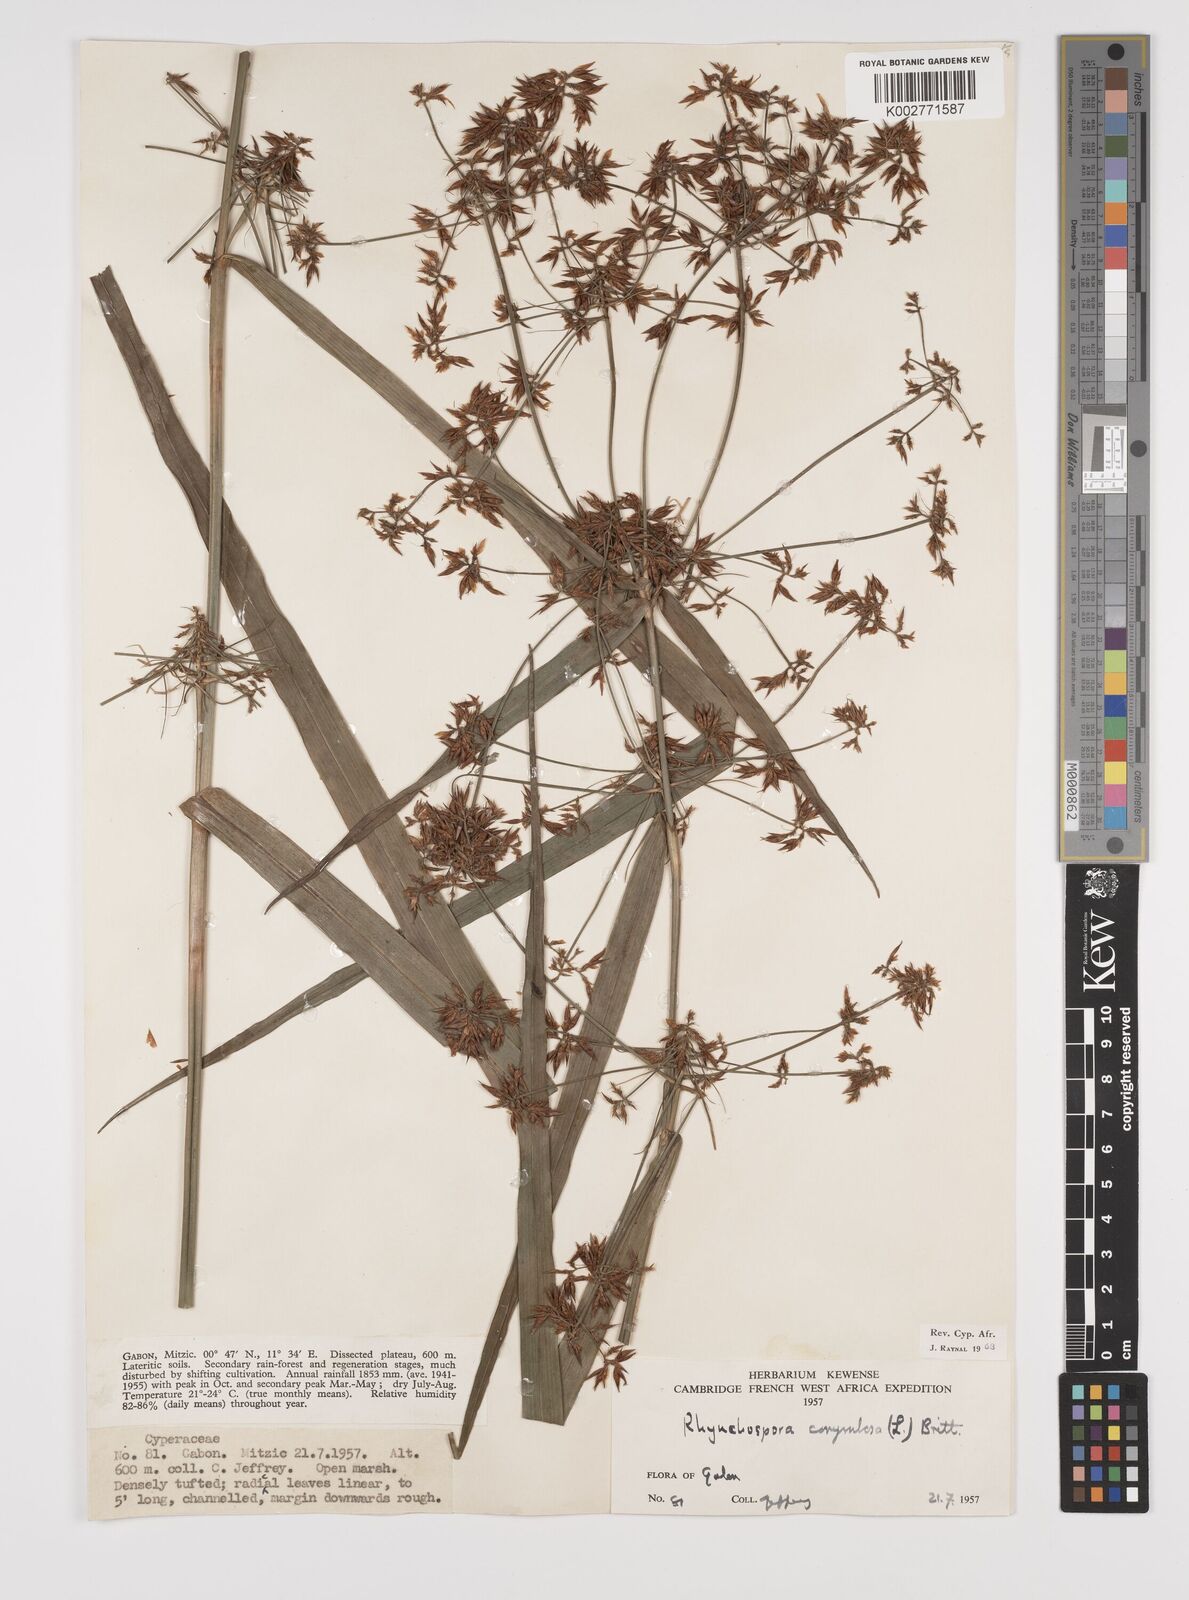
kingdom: Plantae
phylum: Tracheophyta
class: Liliopsida
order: Poales
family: Cyperaceae
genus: Rhynchospora
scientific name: Rhynchospora corymbosa
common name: Golden beak sedge
